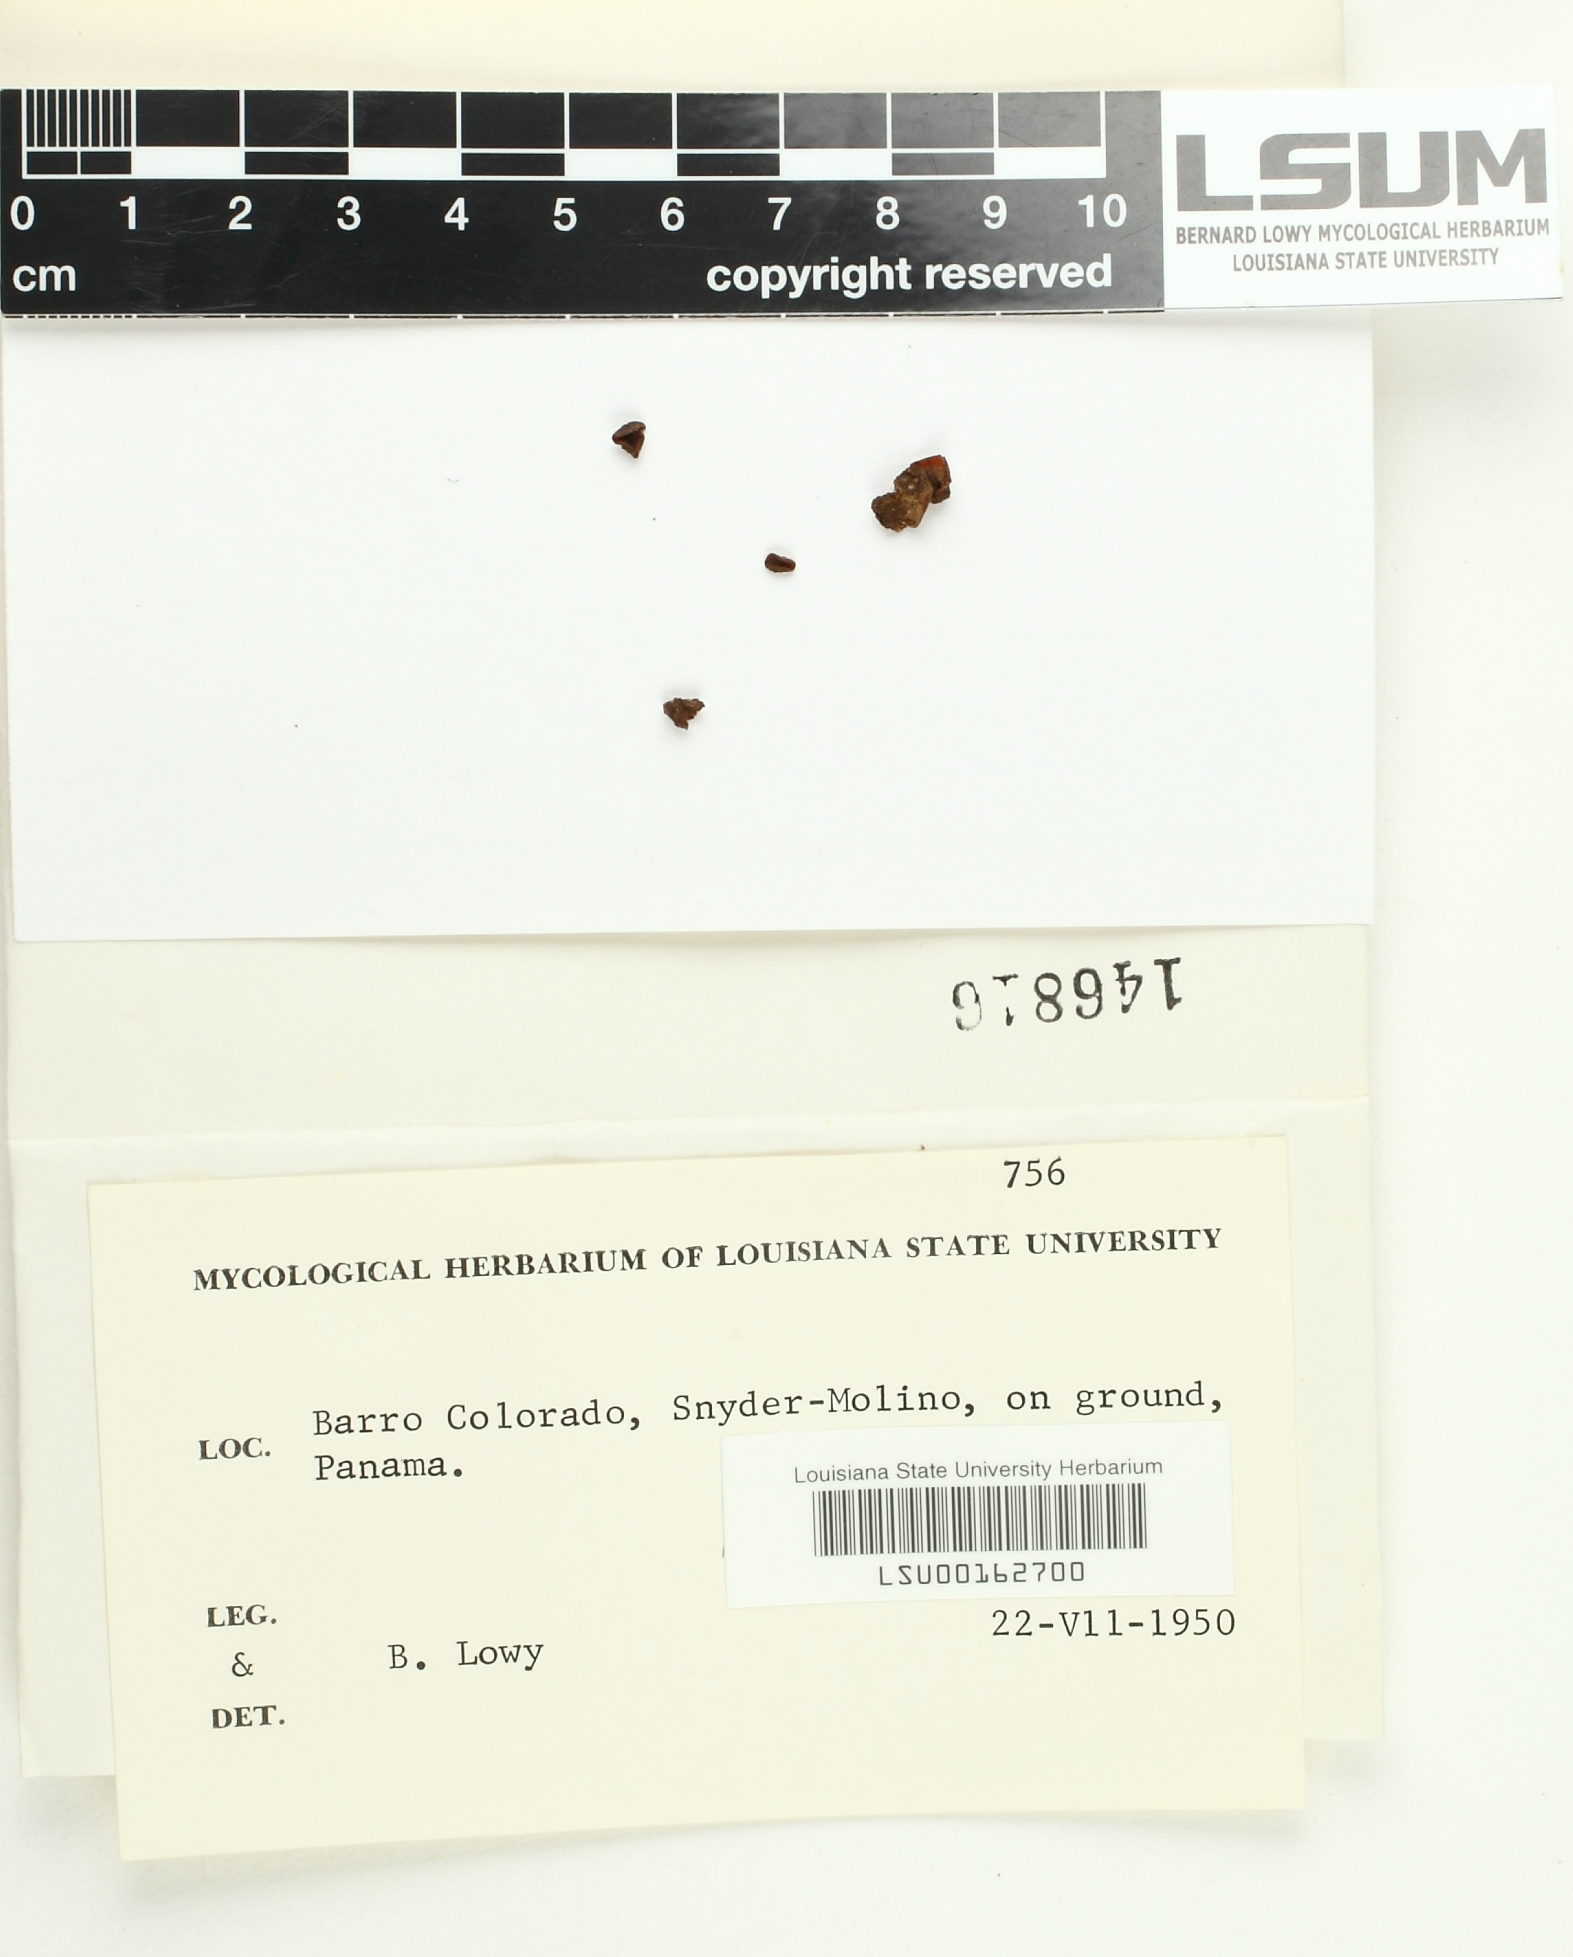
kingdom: Fungi
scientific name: Fungi
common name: Fungi
